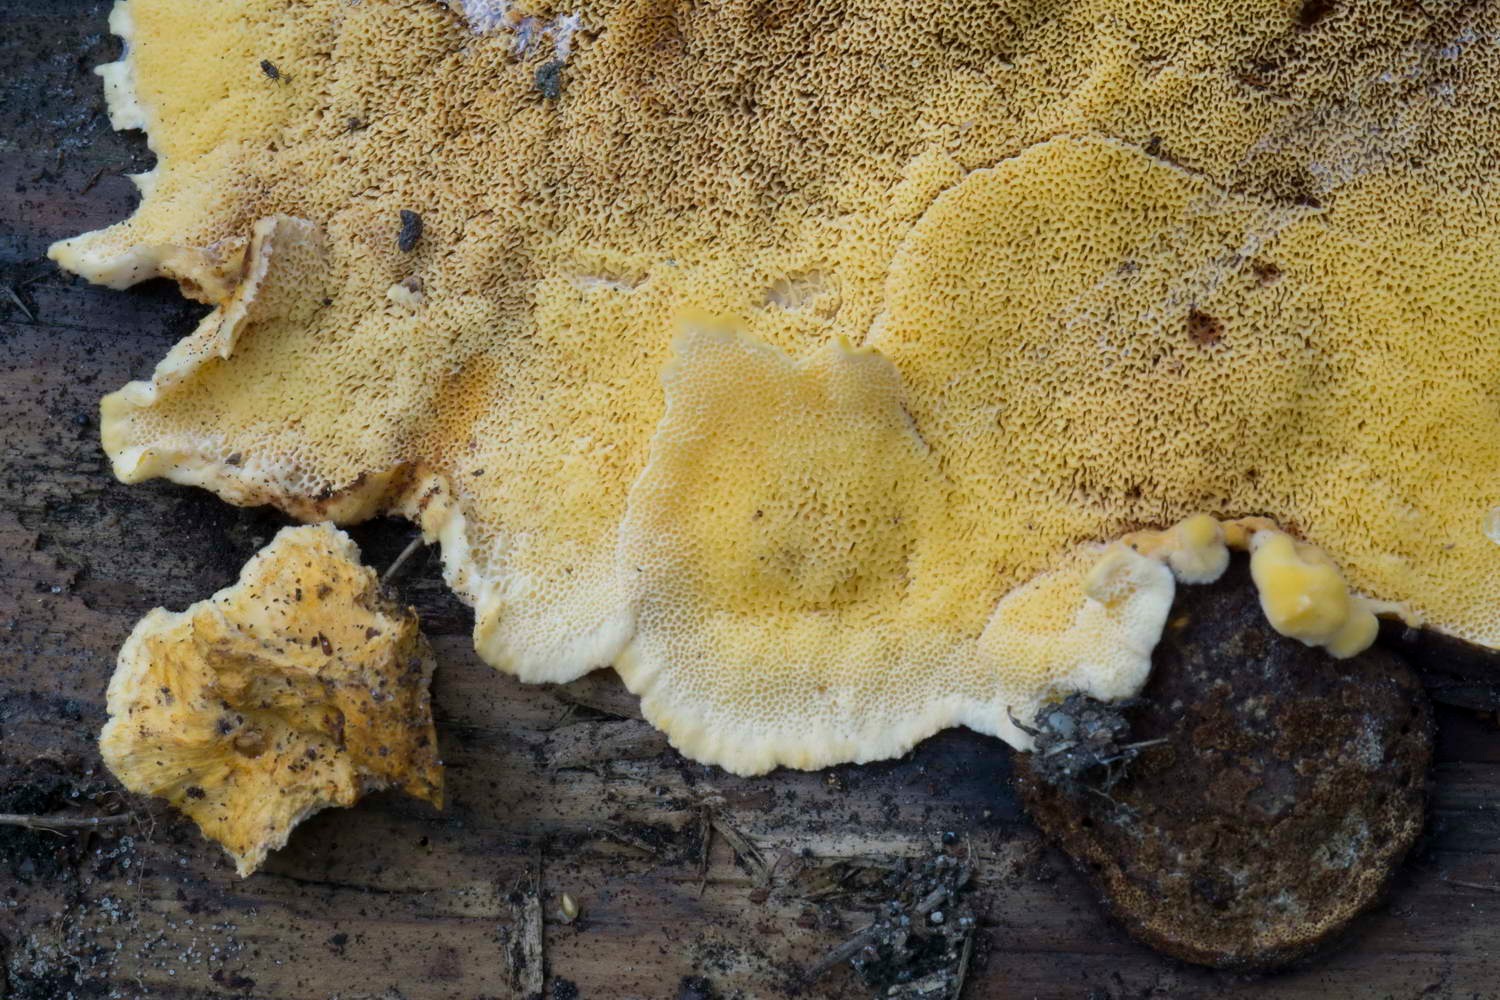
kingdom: Fungi
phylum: Basidiomycota
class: Agaricomycetes
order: Polyporales
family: Pycnoporellaceae
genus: Pycnoporellus
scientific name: Pycnoporellus fulgens
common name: flammeporesvamp
